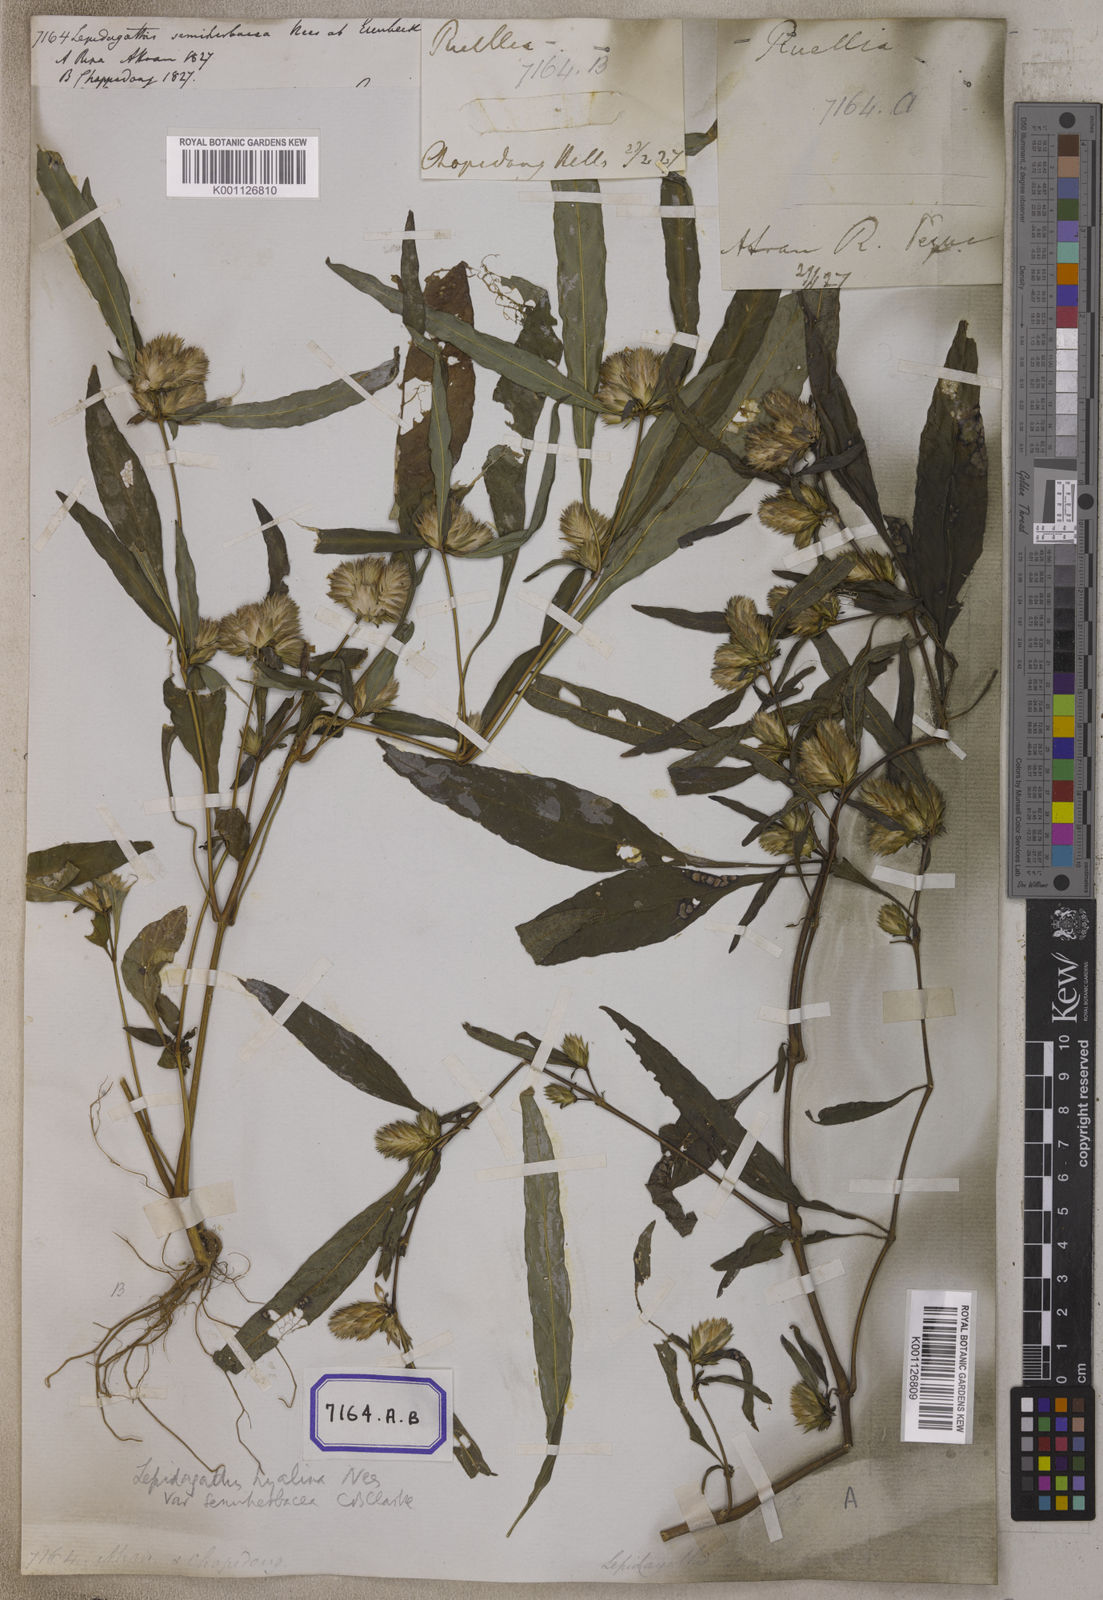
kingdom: Plantae
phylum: Tracheophyta
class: Magnoliopsida
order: Lamiales
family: Acanthaceae
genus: Lepidagathis
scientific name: Lepidagathis incurva
